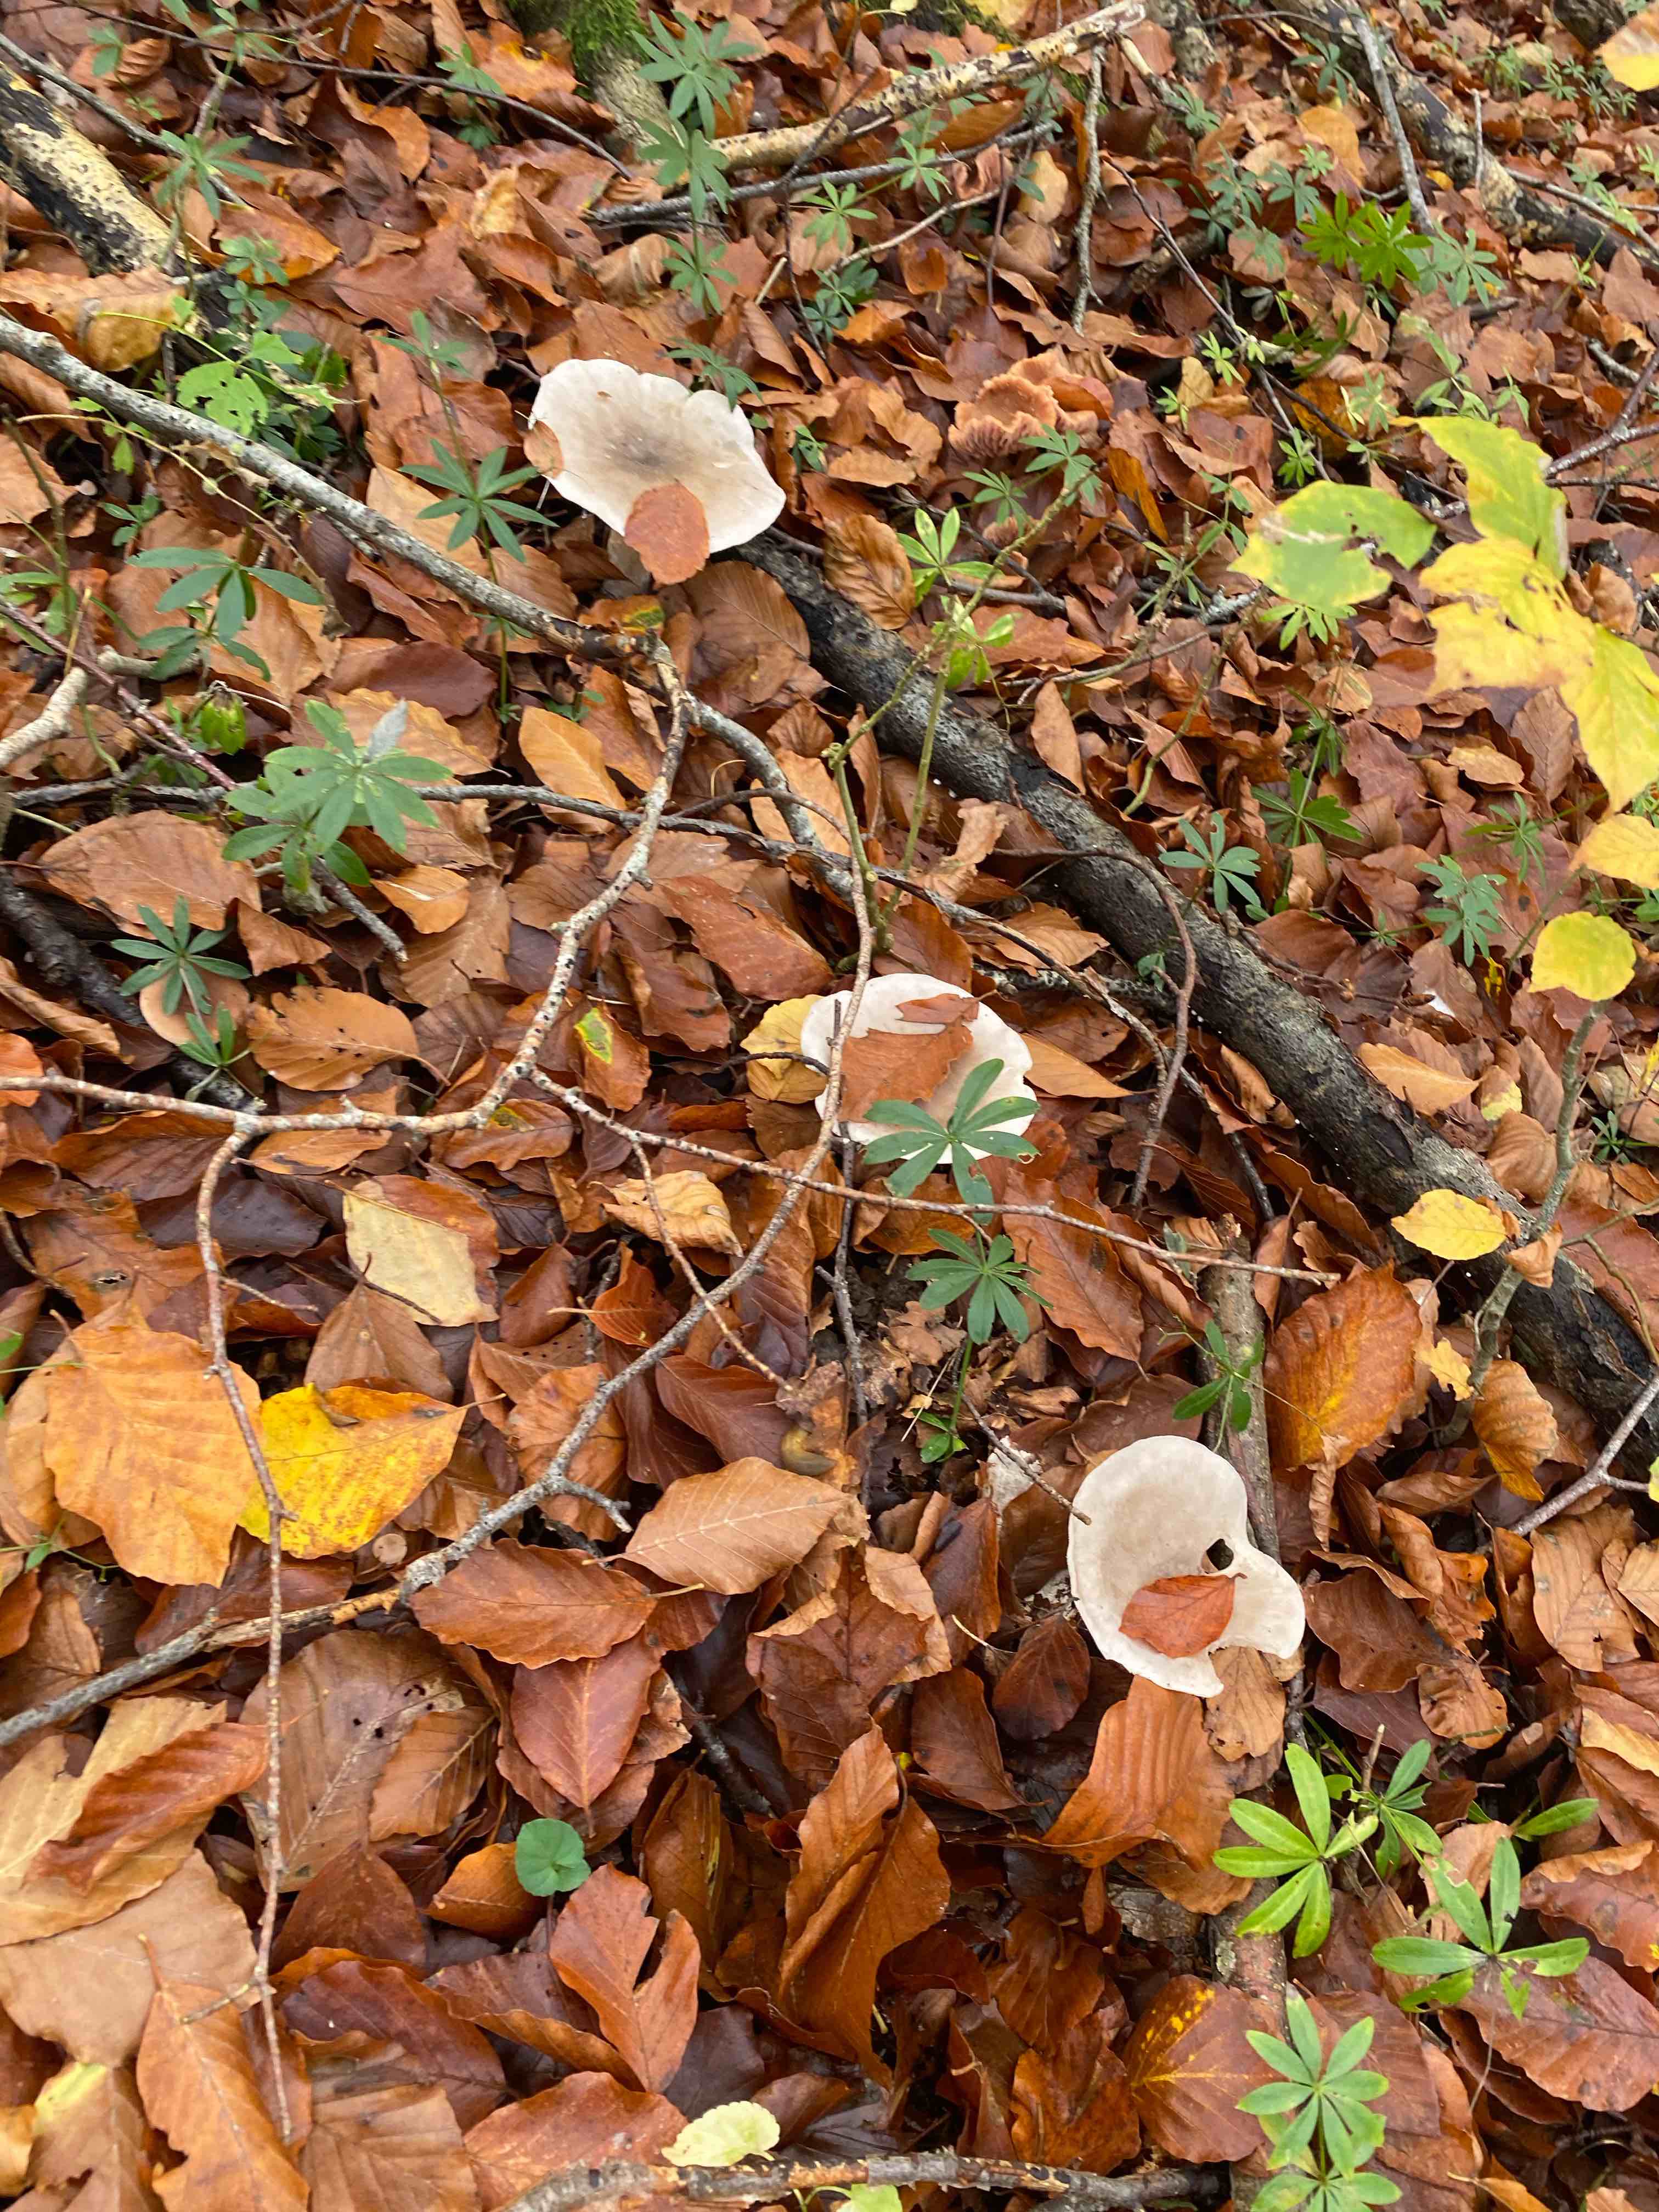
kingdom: Fungi
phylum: Basidiomycota
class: Agaricomycetes
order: Agaricales
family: Tricholomataceae
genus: Clitocybe
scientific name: Clitocybe nebularis
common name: tåge-tragthat
